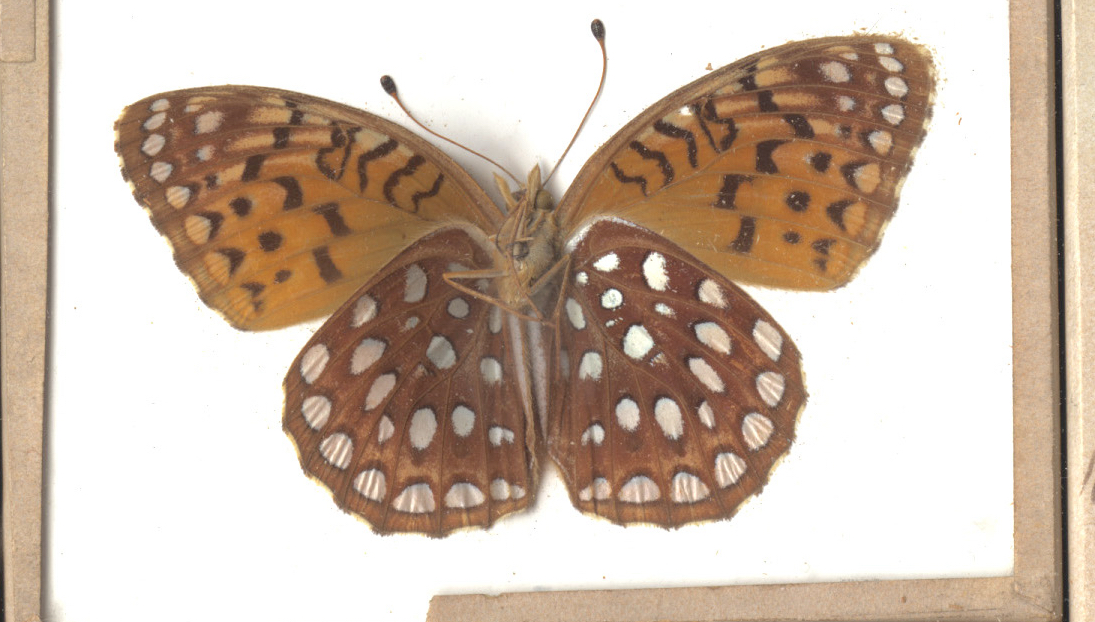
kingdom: Animalia
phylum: Arthropoda
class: Insecta
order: Lepidoptera
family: Nymphalidae
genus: Speyeria
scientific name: Speyeria aphrodite
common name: Aphrodite Fritillary
